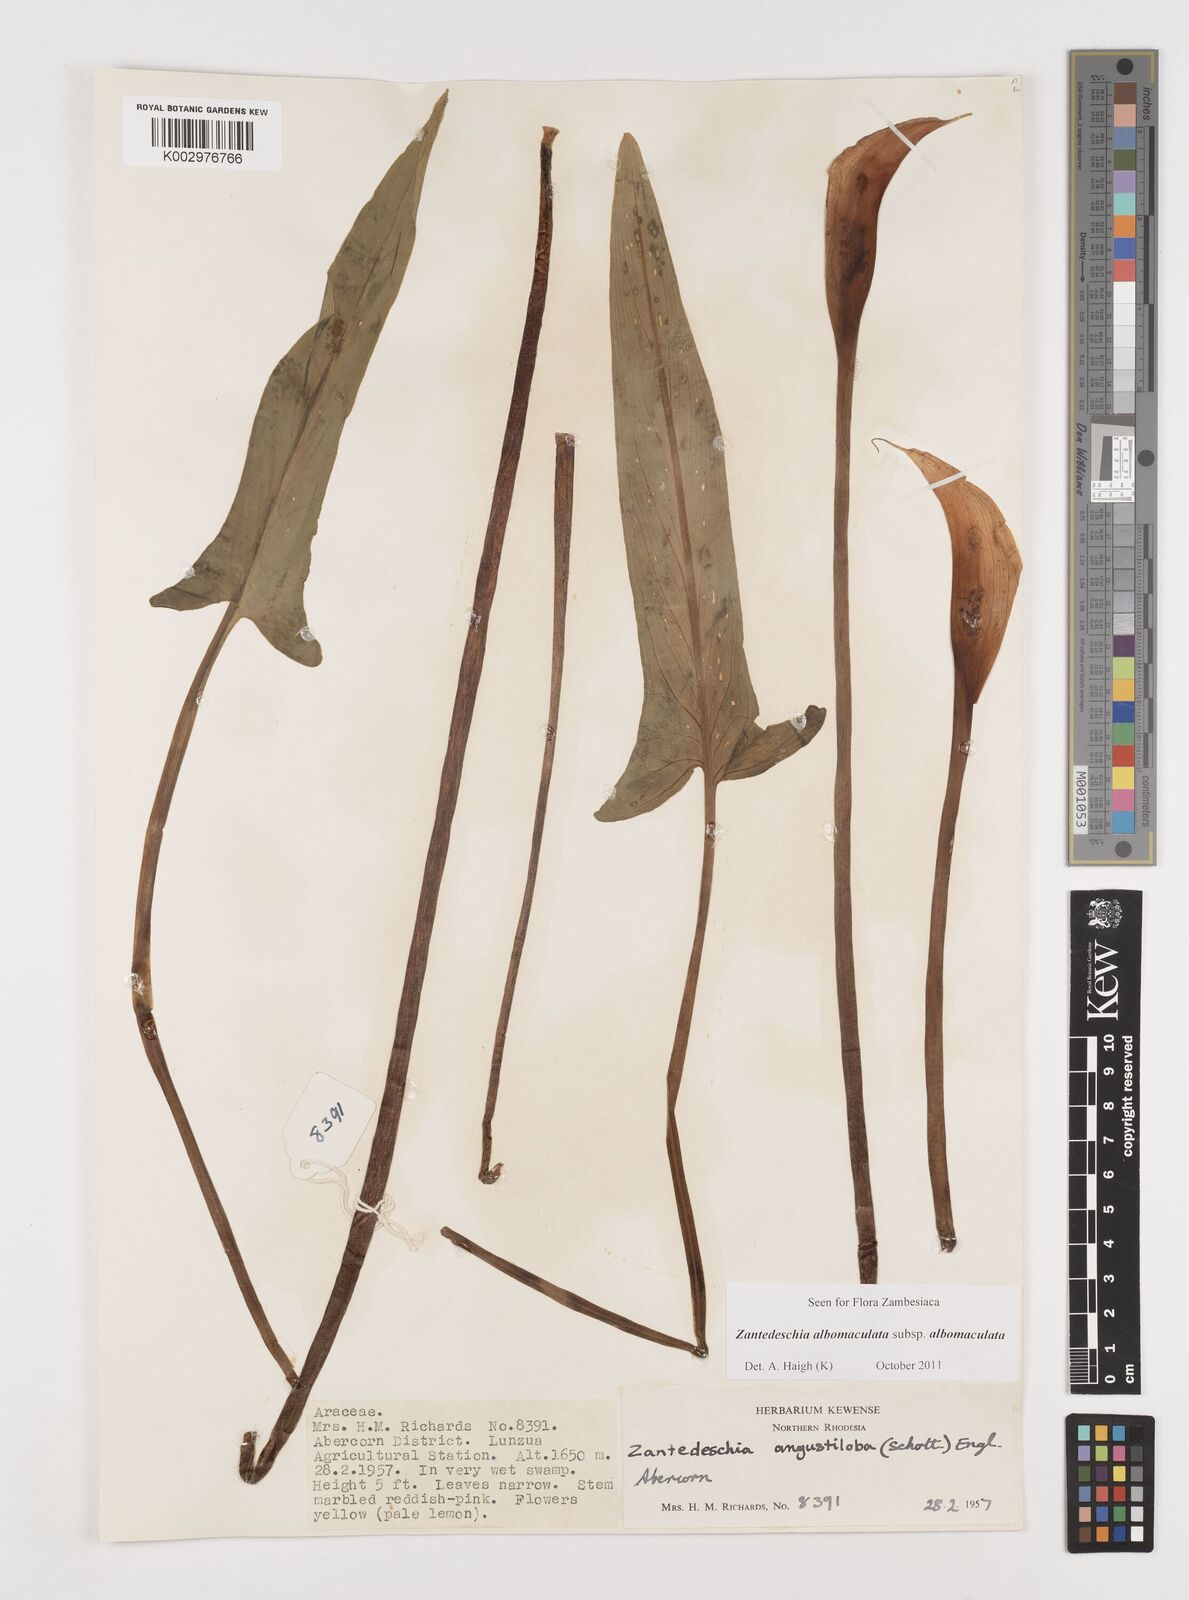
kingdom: Plantae
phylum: Tracheophyta
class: Liliopsida
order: Alismatales
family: Araceae
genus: Zantedeschia
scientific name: Zantedeschia albomaculata
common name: Spotted calla lily
